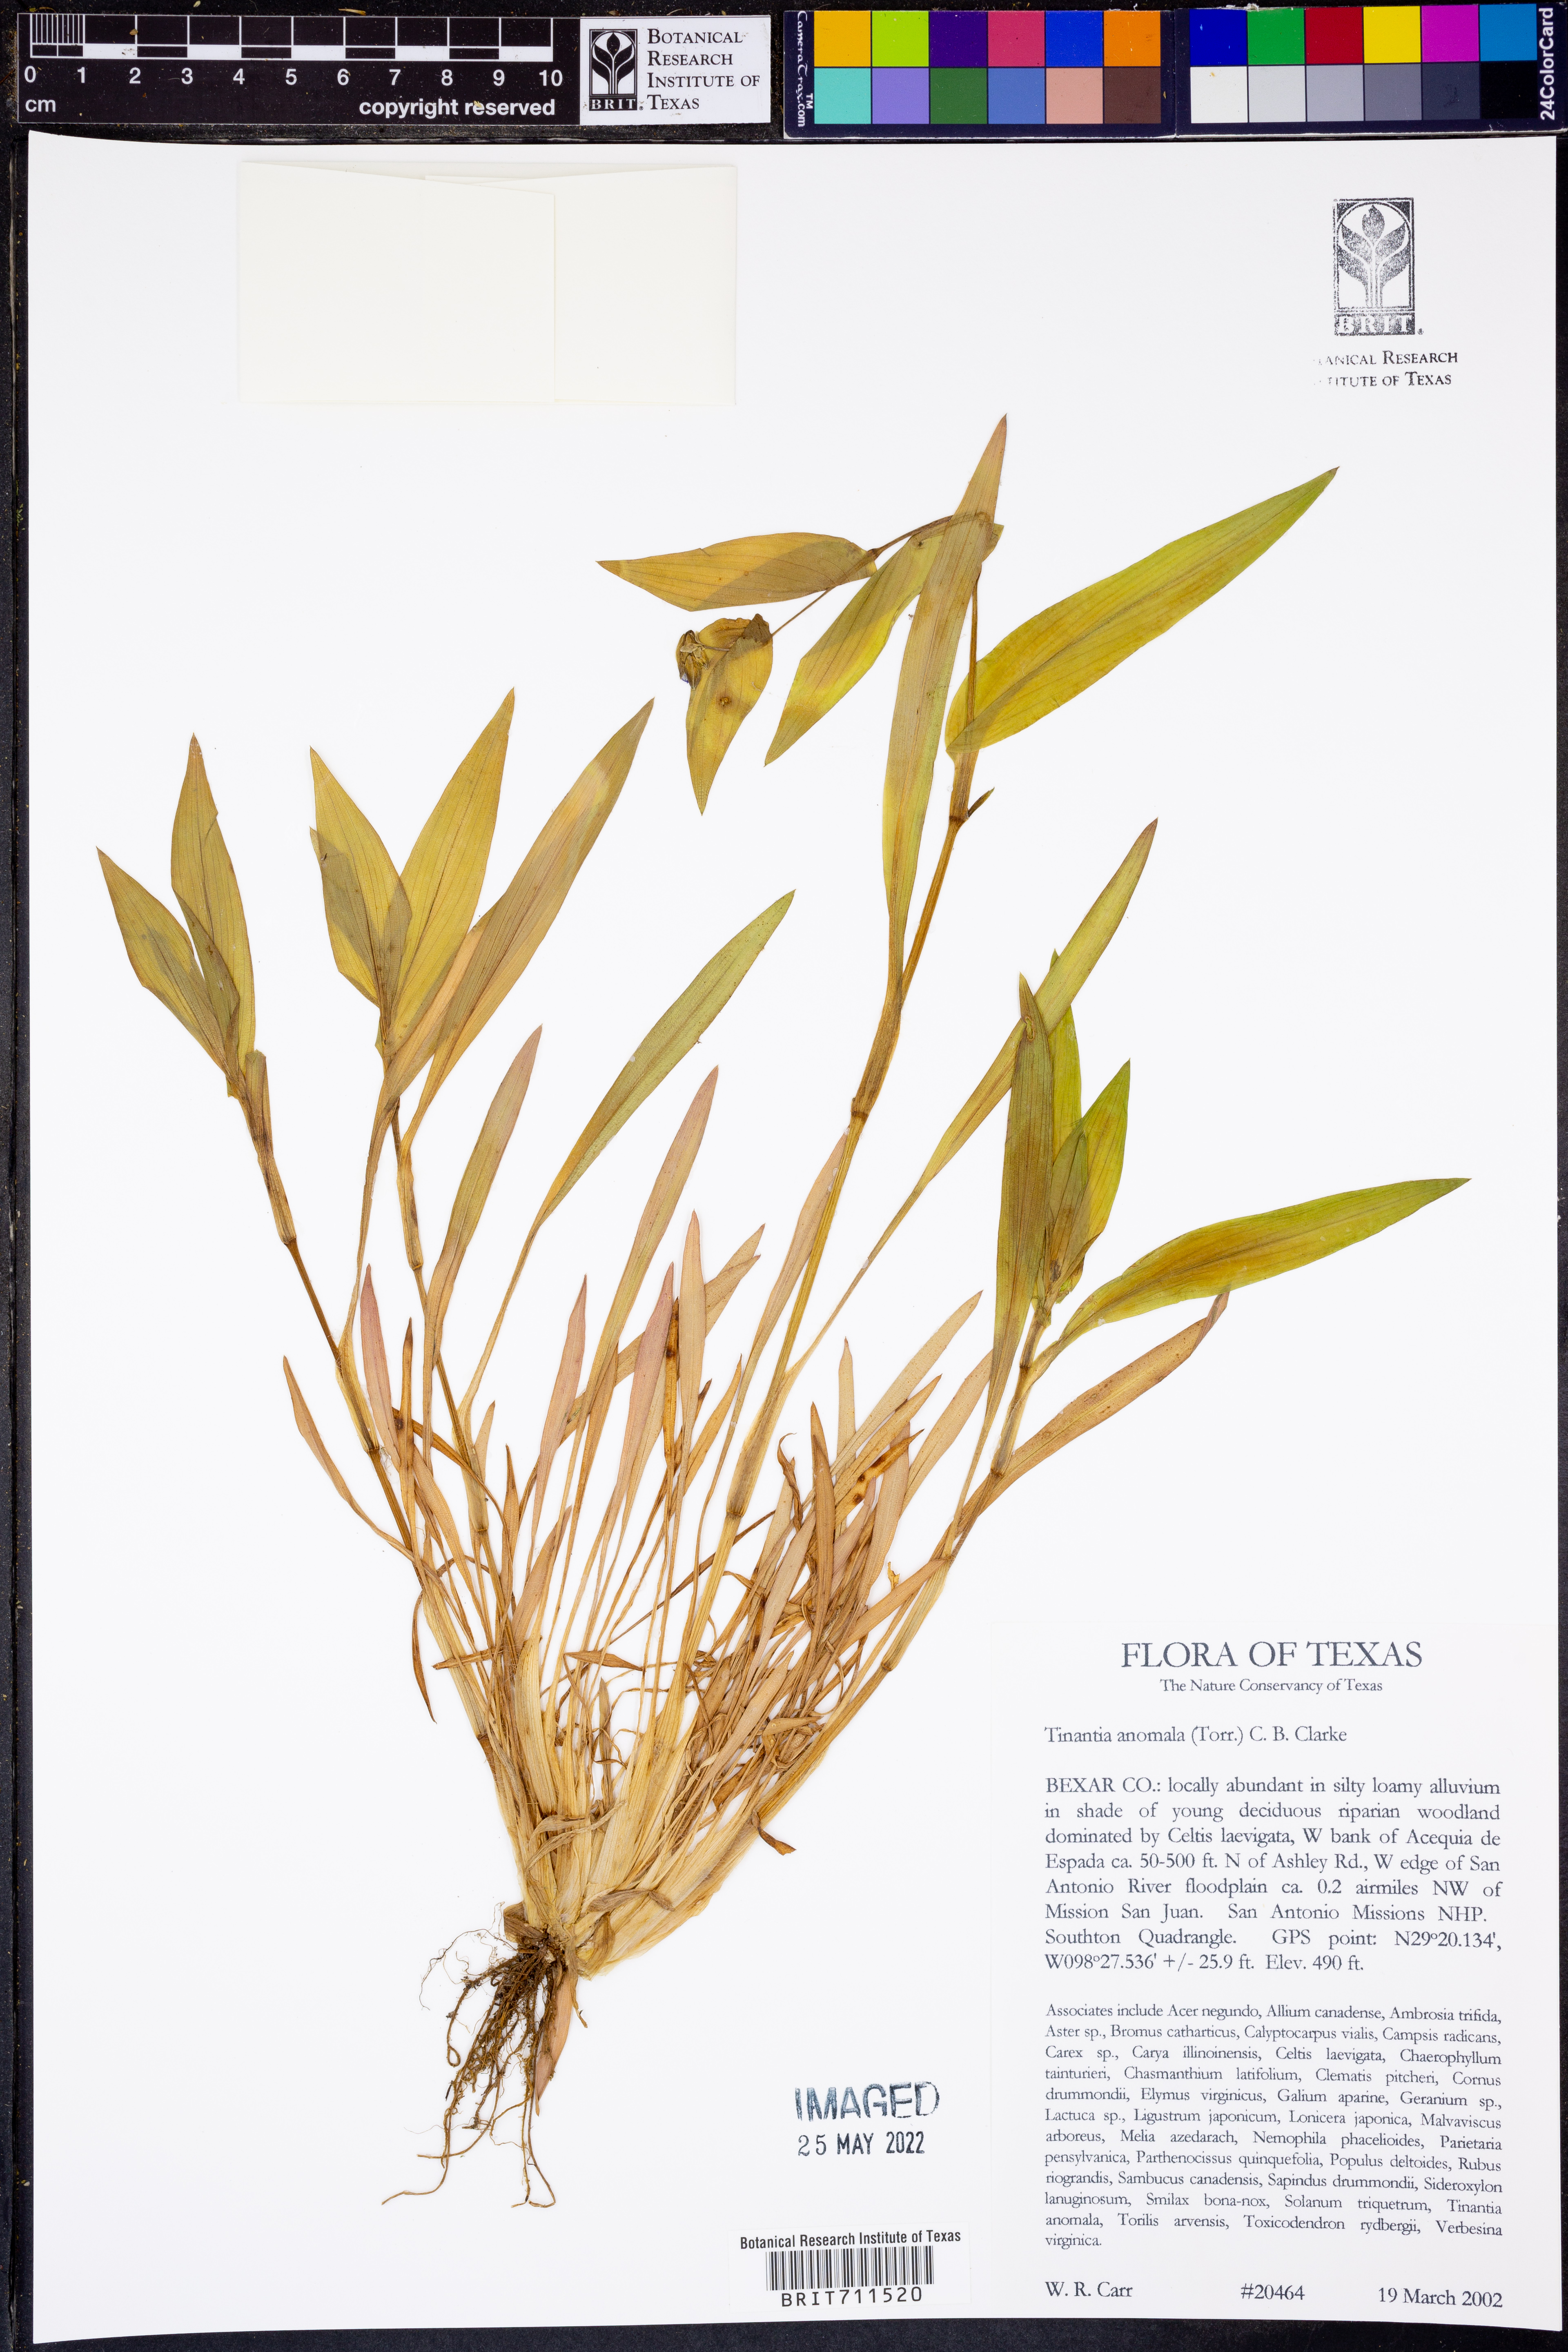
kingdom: Plantae
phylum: Tracheophyta
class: Liliopsida
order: Commelinales
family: Commelinaceae
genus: Tinantia
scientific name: Tinantia anomala
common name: False dayflower
